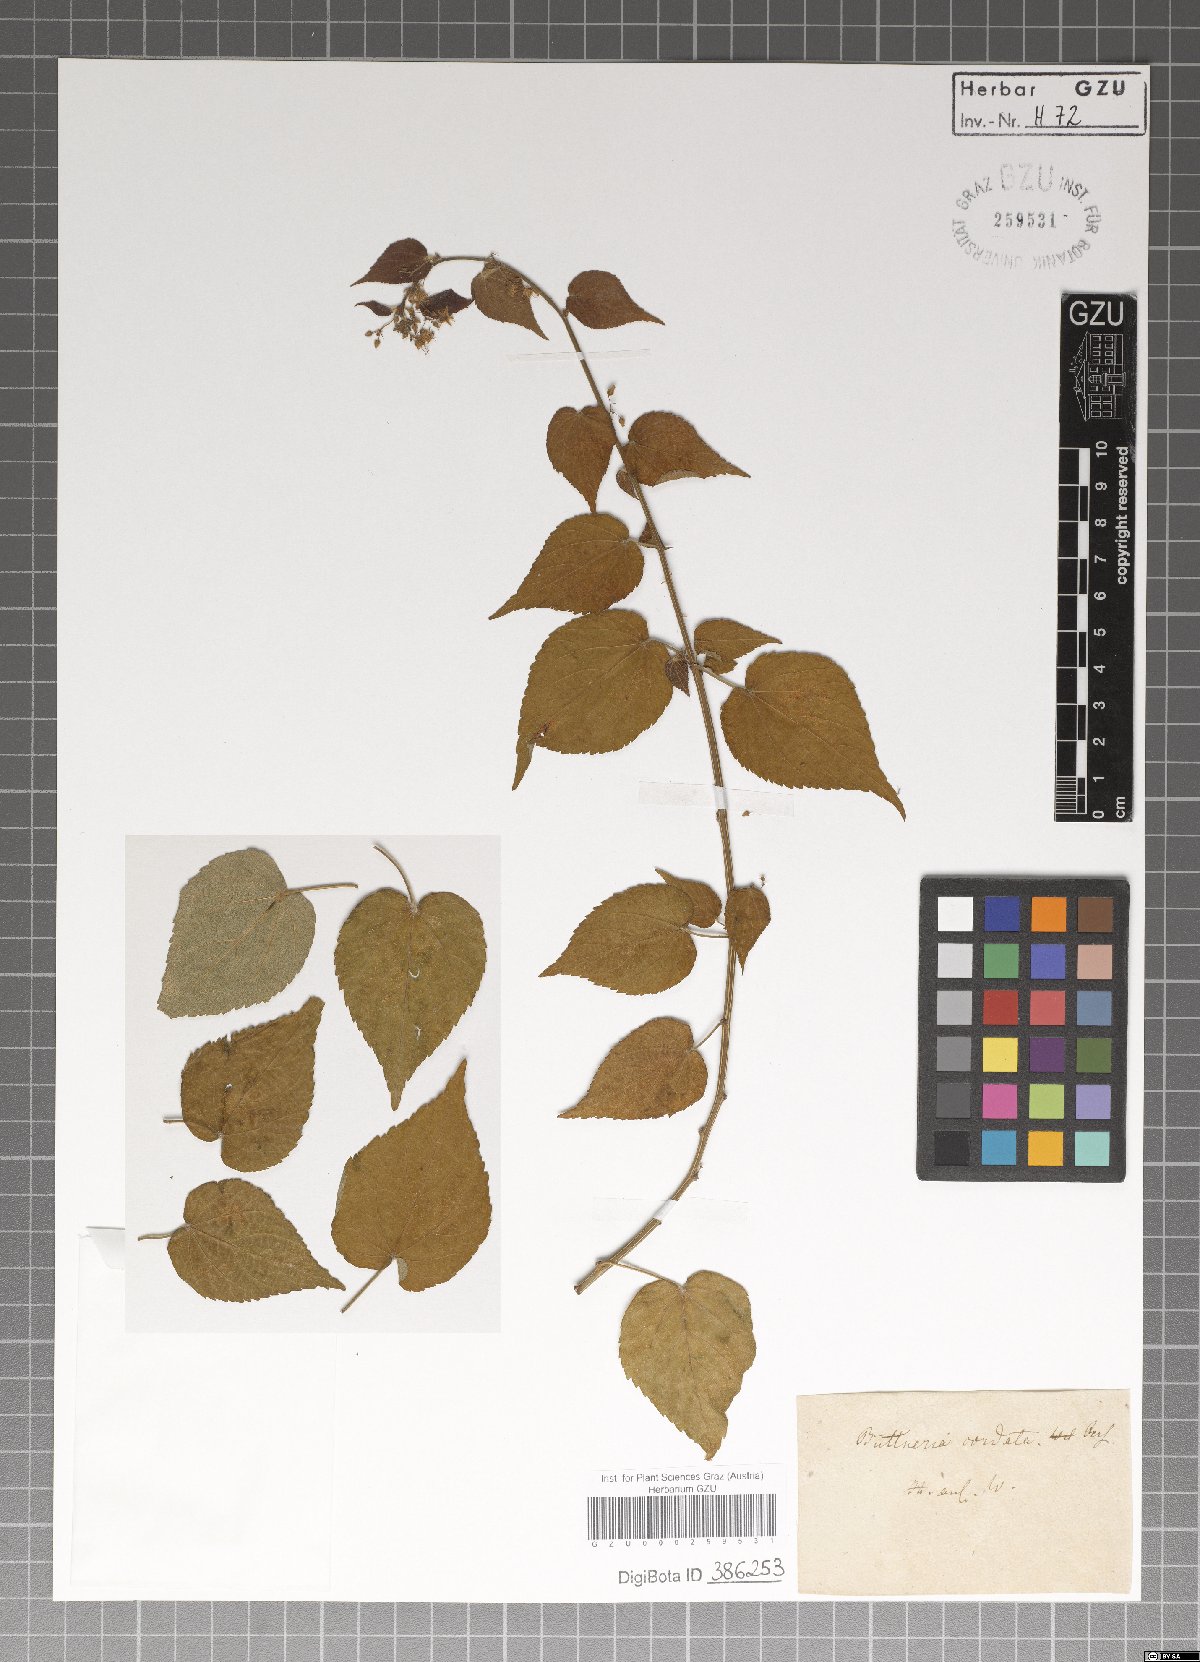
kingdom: Plantae
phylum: Tracheophyta
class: Magnoliopsida
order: Malvales
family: Malvaceae
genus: Byttneria
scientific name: Byttneria cordata
